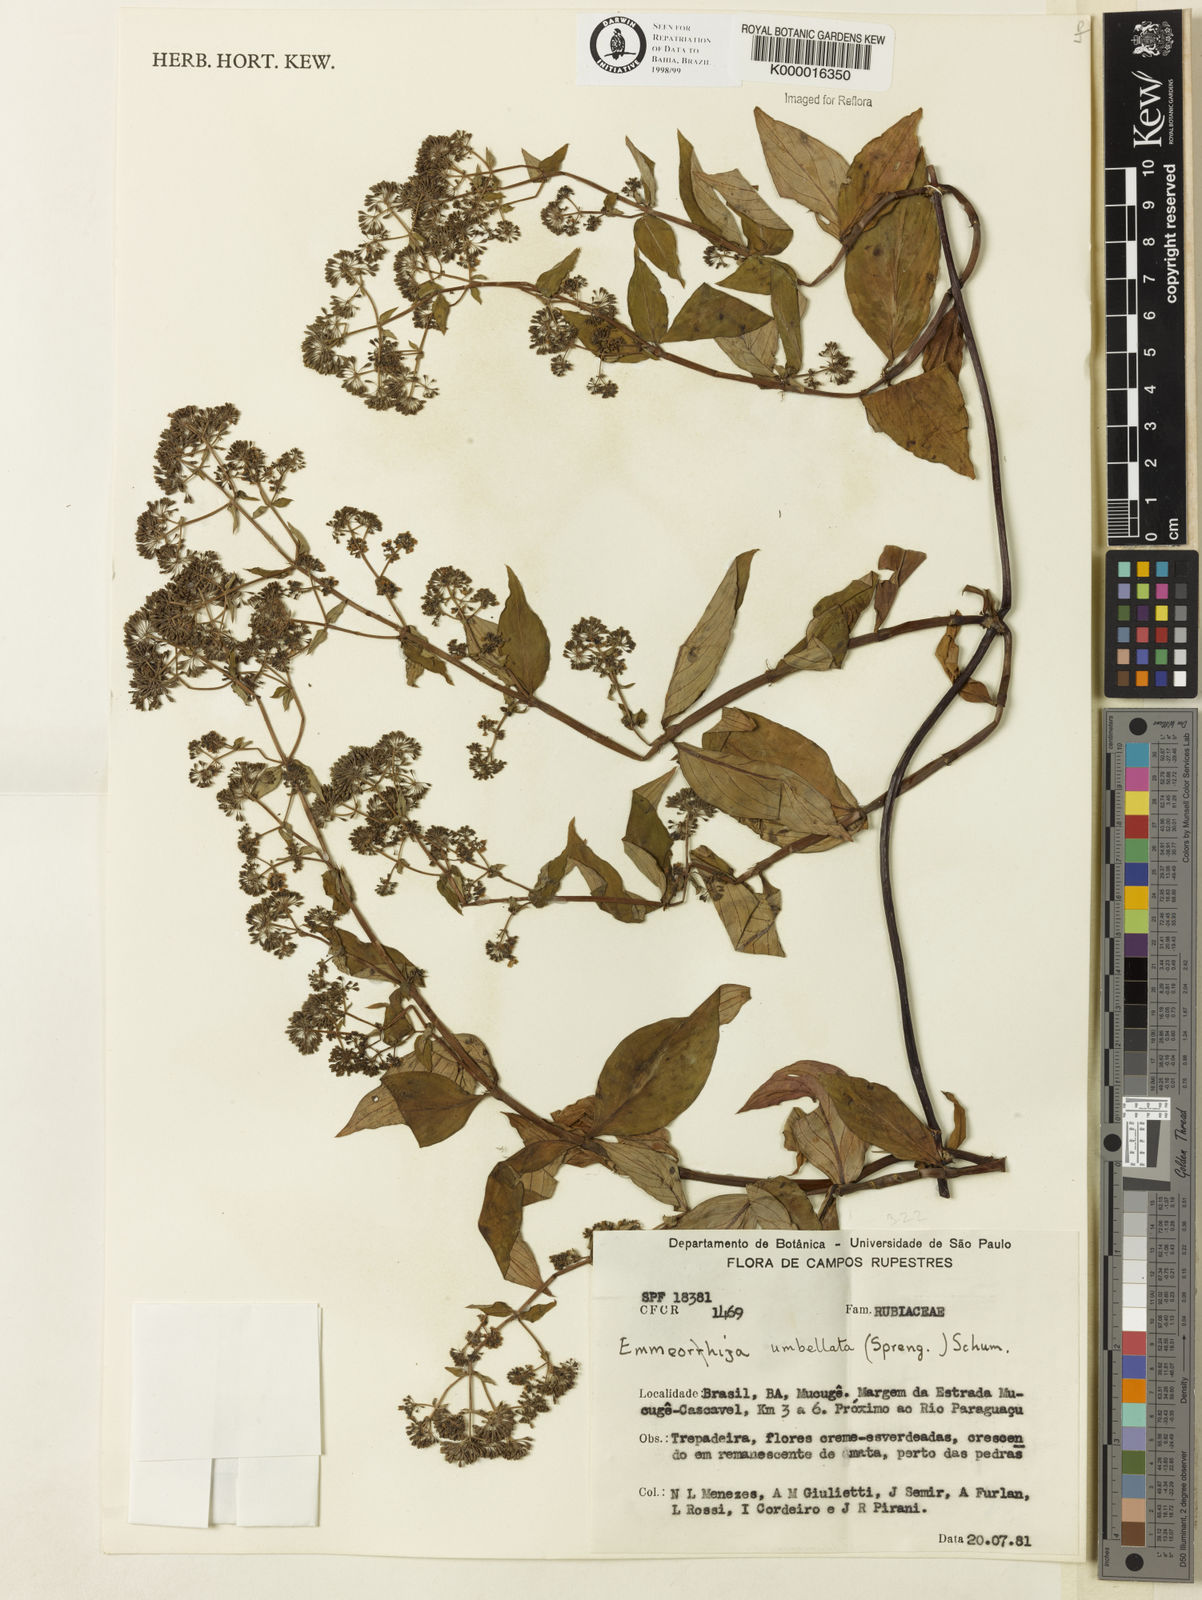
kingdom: Plantae
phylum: Tracheophyta
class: Magnoliopsida
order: Gentianales
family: Rubiaceae
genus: Emmeorhiza
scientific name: Emmeorhiza umbellata
